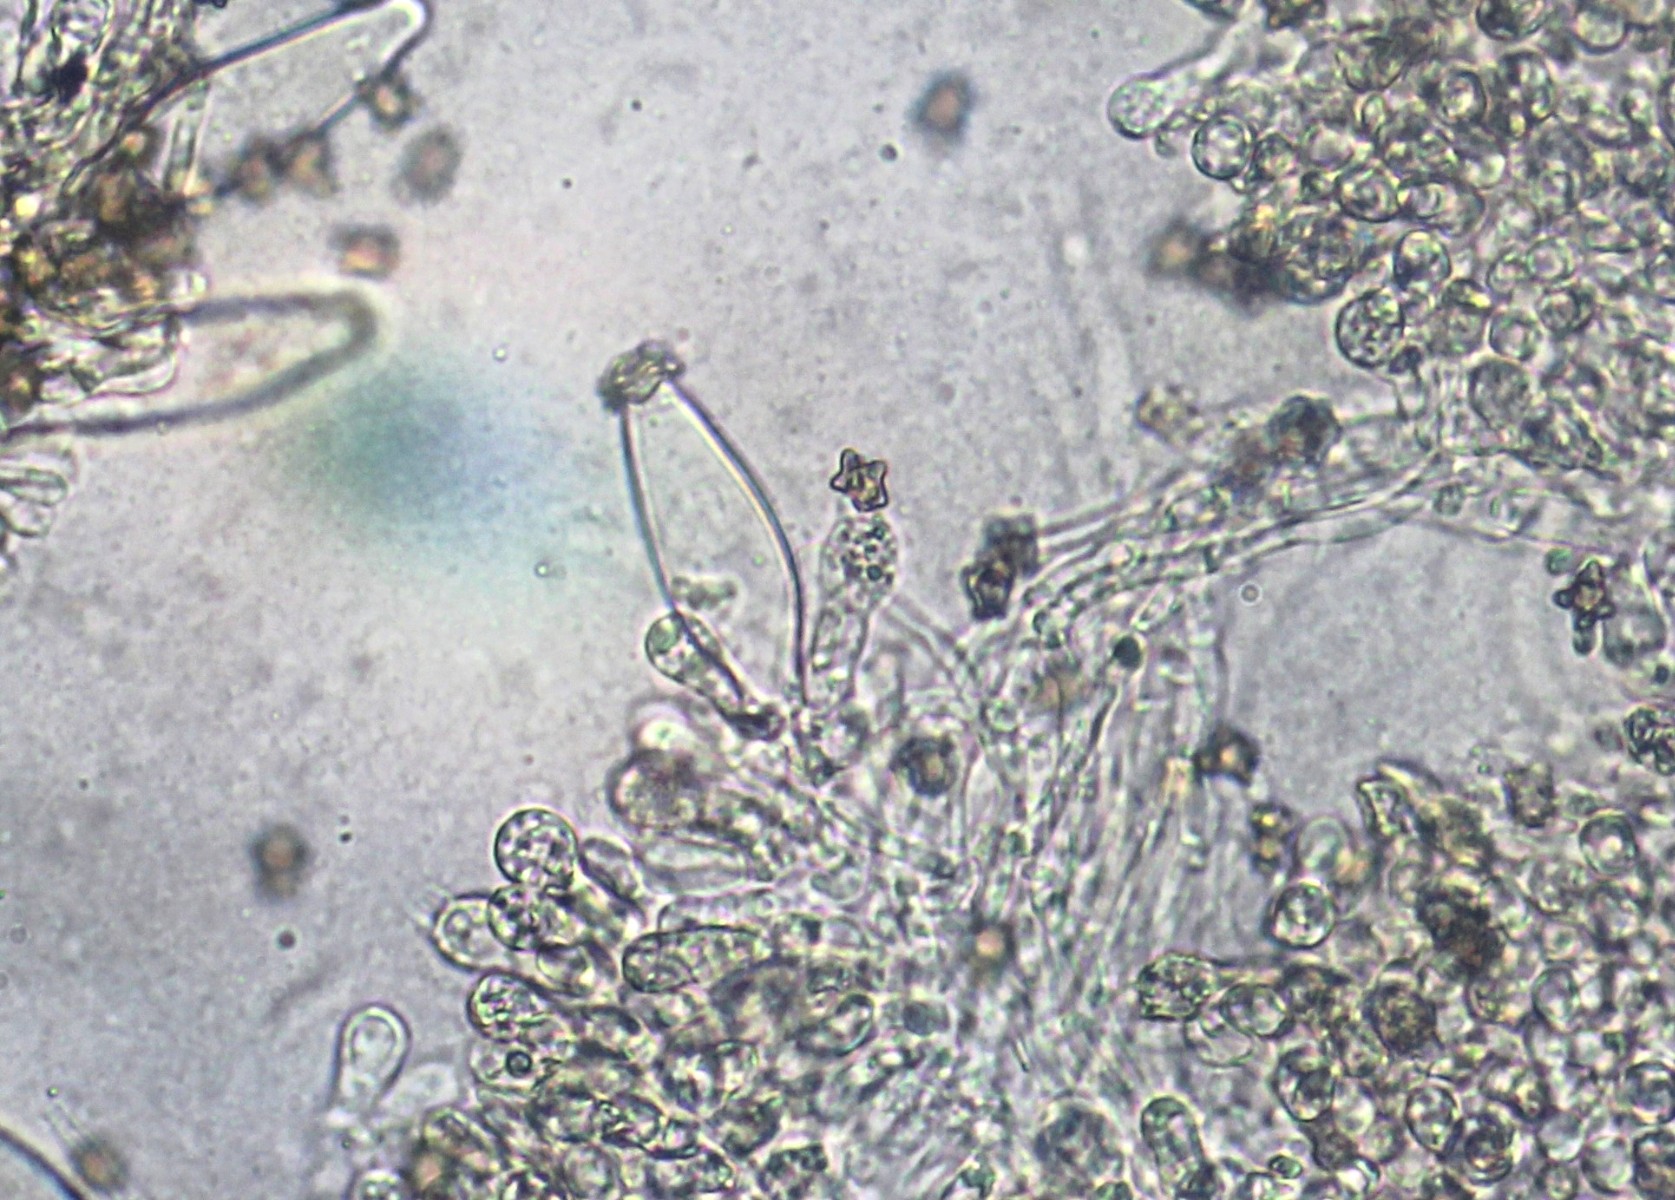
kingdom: Fungi
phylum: Basidiomycota
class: Agaricomycetes
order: Agaricales
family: Inocybaceae
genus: Inocybe
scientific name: Inocybe napipes
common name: roeknoldet trævlhat
